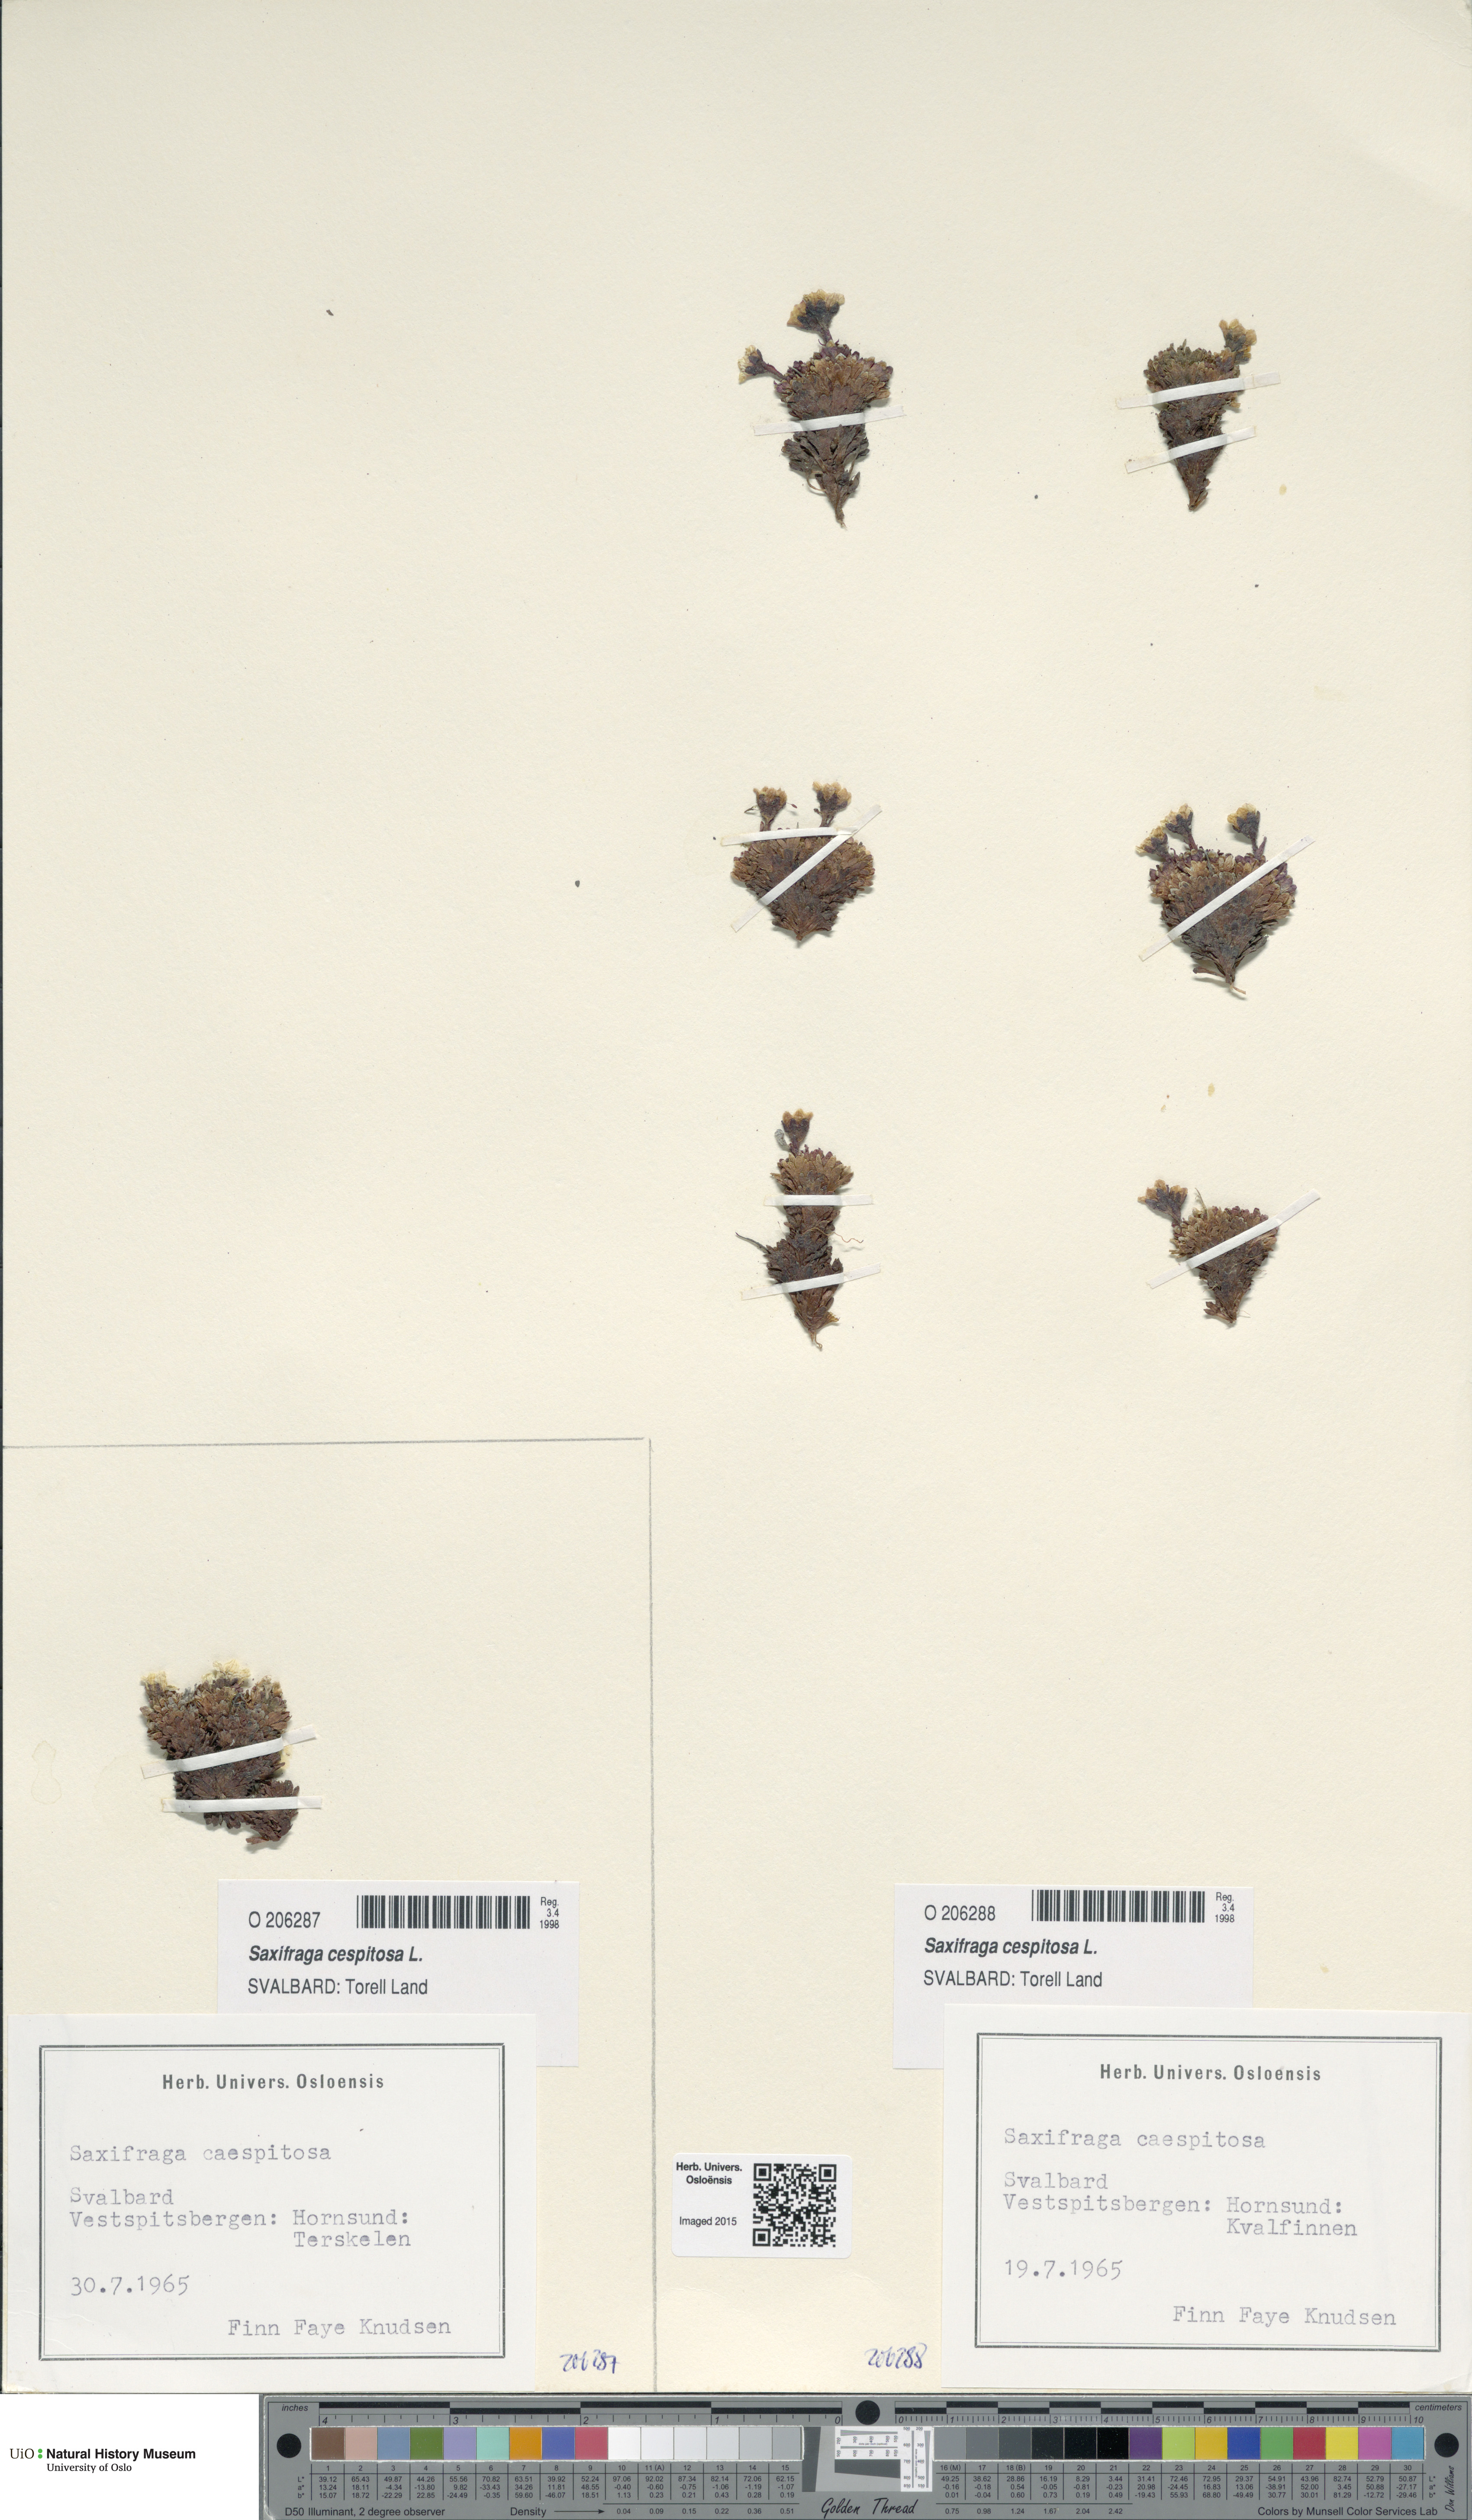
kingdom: Plantae
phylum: Tracheophyta
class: Magnoliopsida
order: Saxifragales
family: Saxifragaceae
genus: Saxifraga
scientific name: Saxifraga cespitosa
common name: Tufted saxifrage
